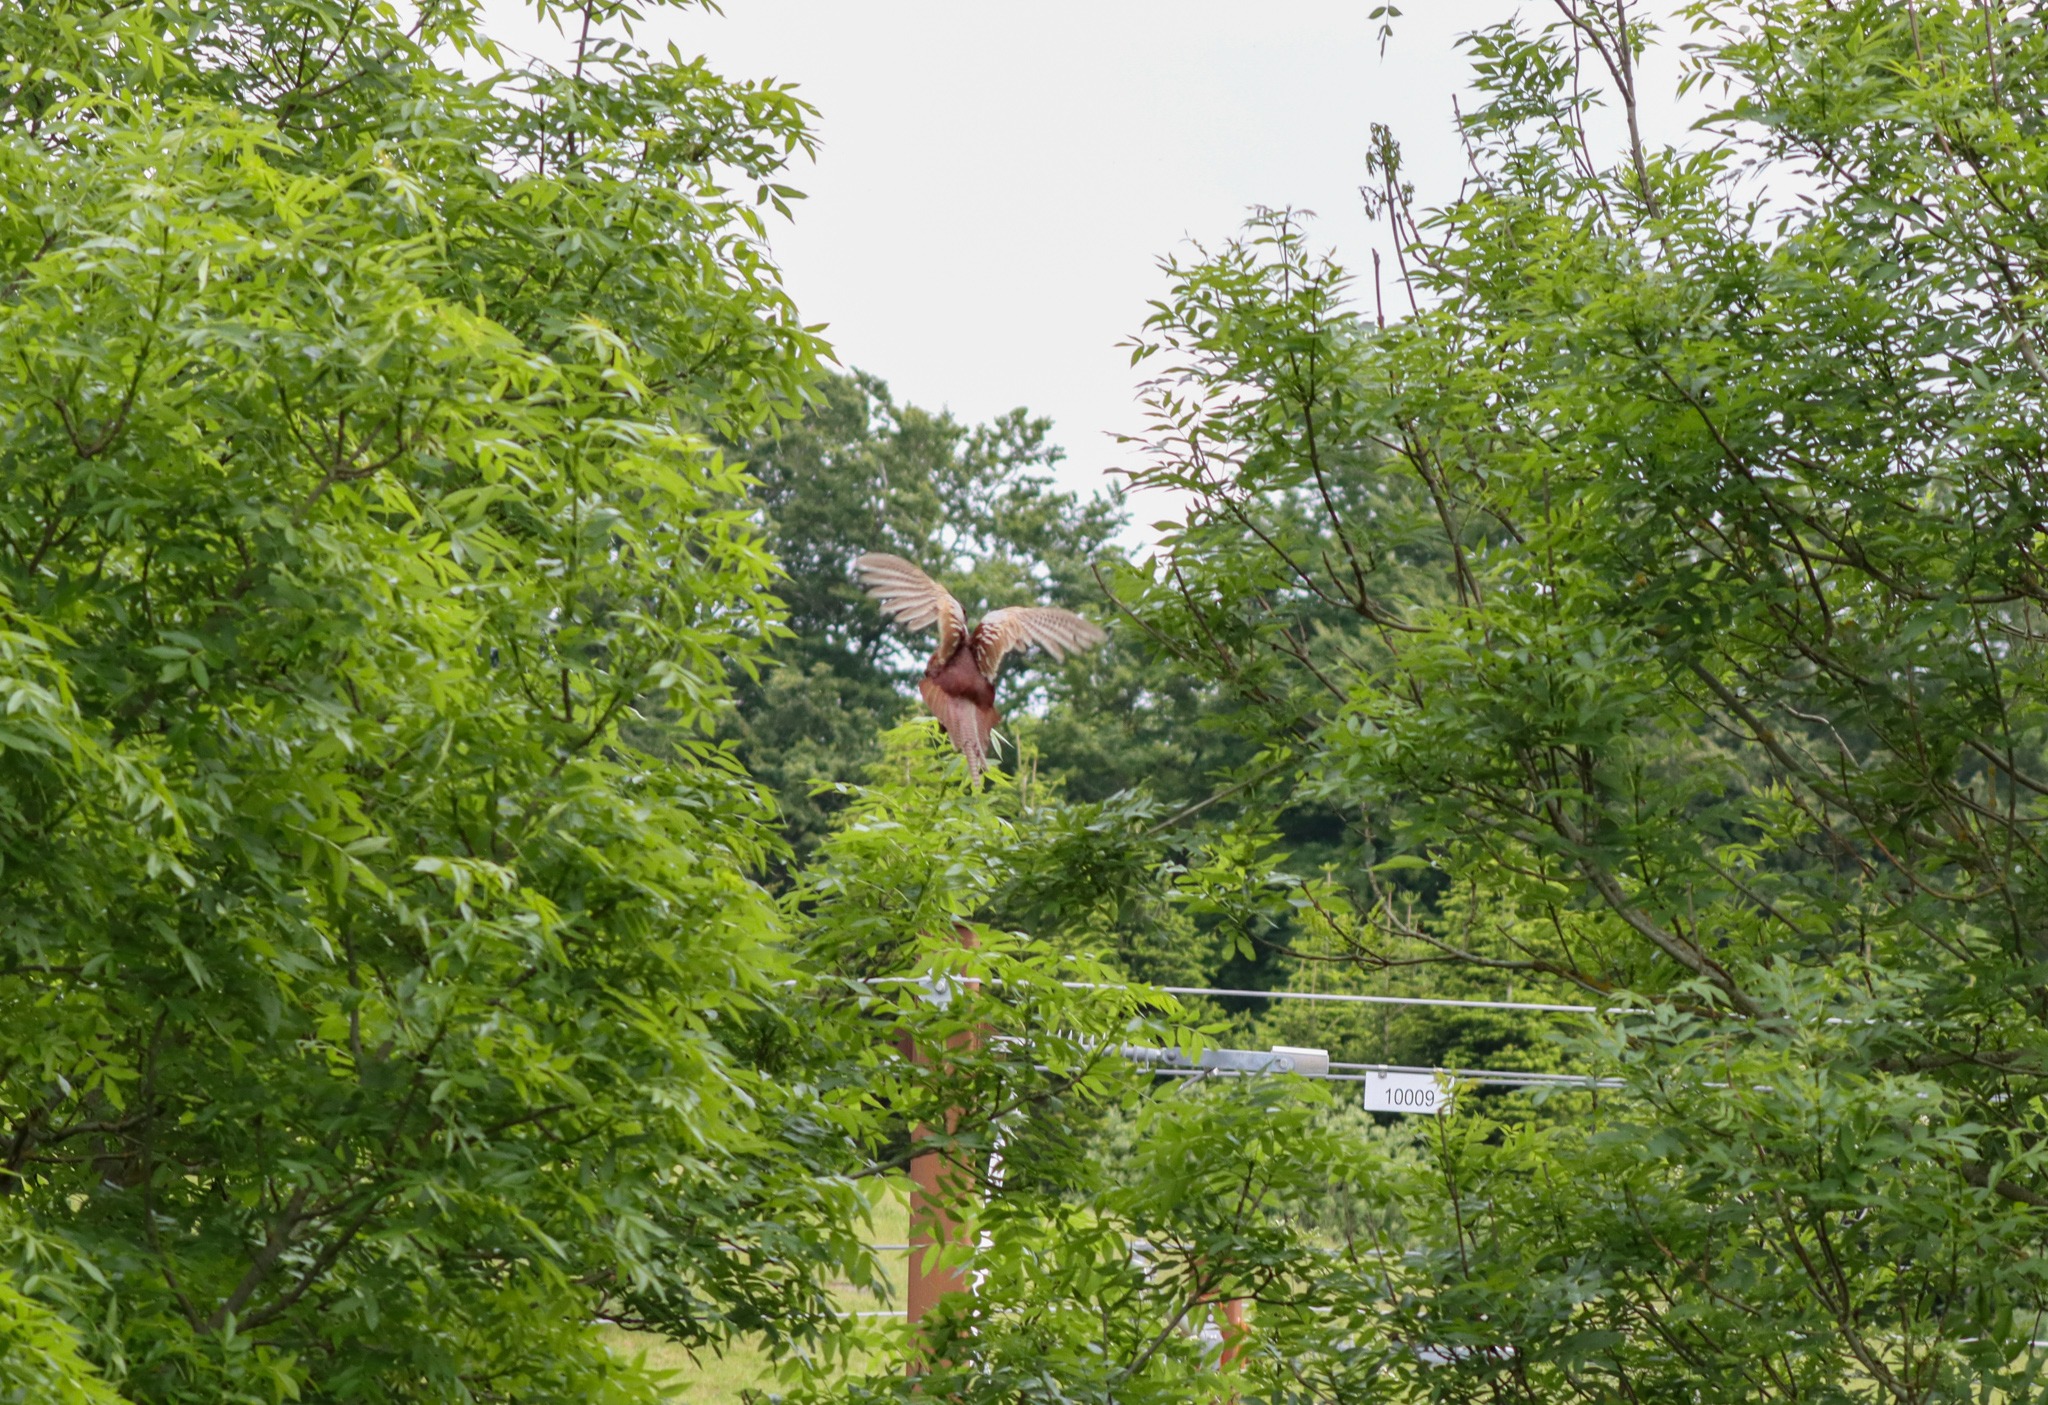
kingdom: Animalia
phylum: Chordata
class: Aves
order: Galliformes
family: Phasianidae
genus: Phasianus
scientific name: Phasianus colchicus
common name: Fasan
